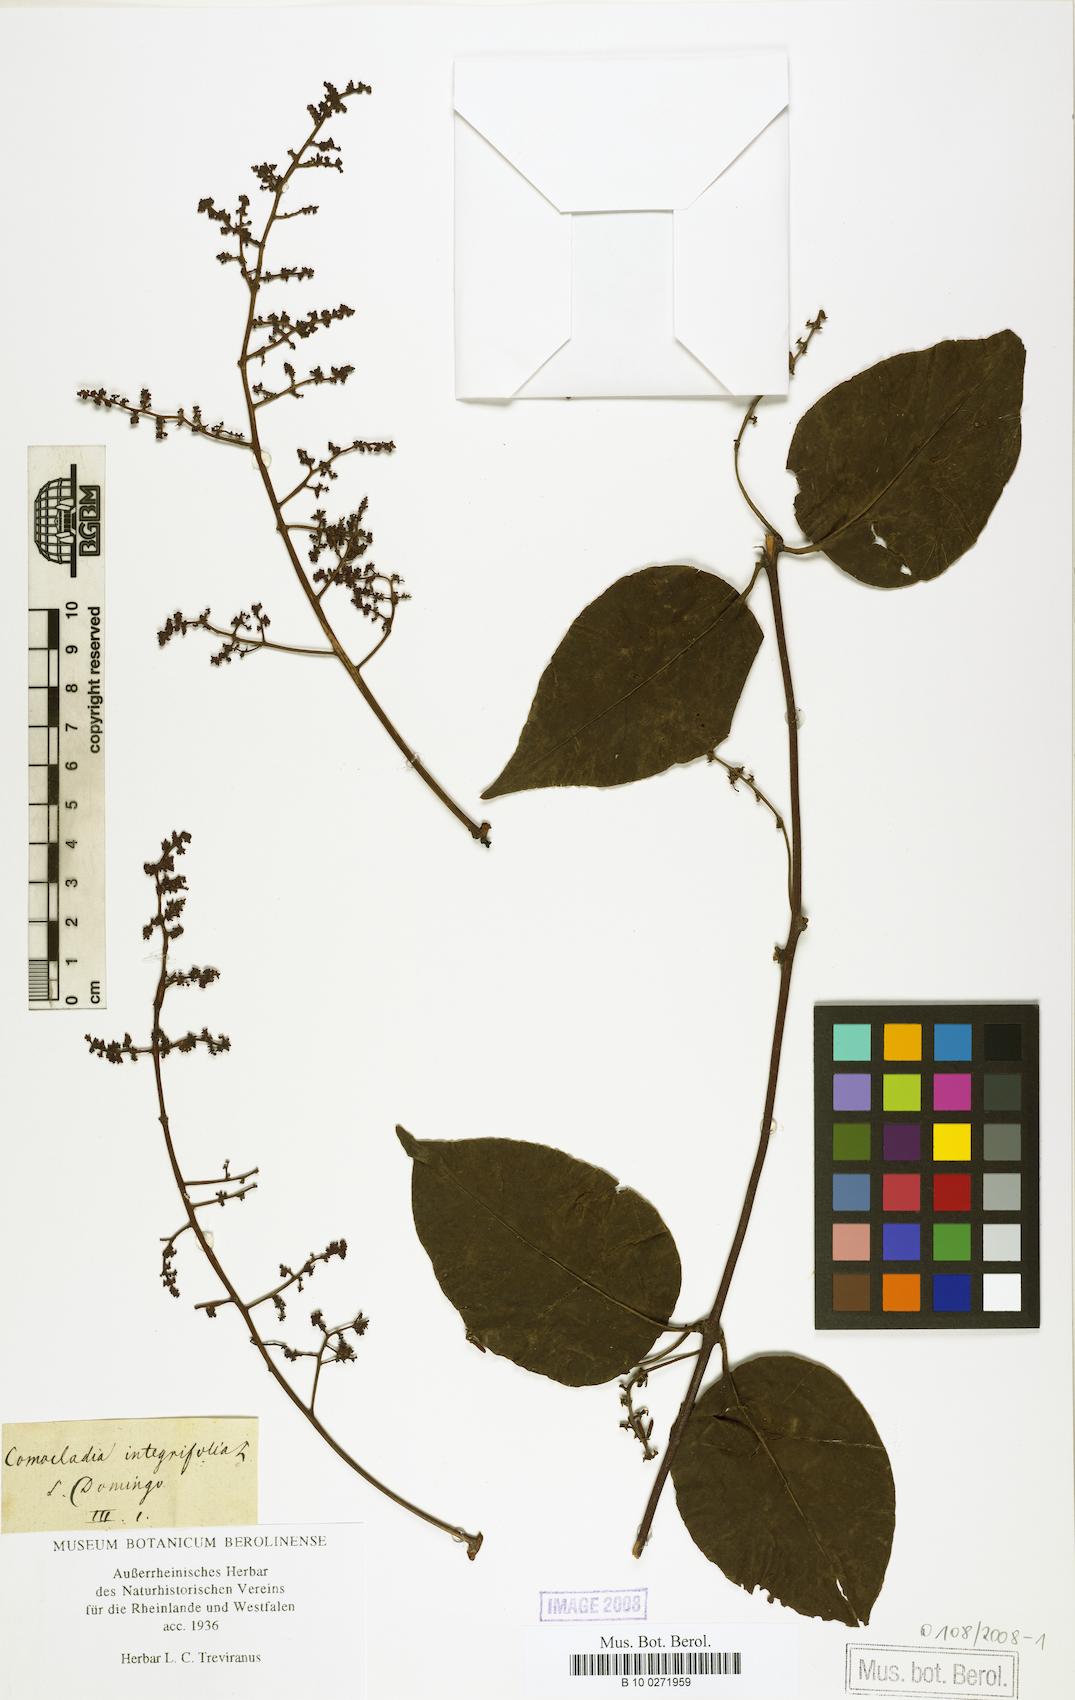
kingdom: Plantae
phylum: Tracheophyta
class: Magnoliopsida
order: Sapindales
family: Anacardiaceae
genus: Comocladia
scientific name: Comocladia pinnatifolia
